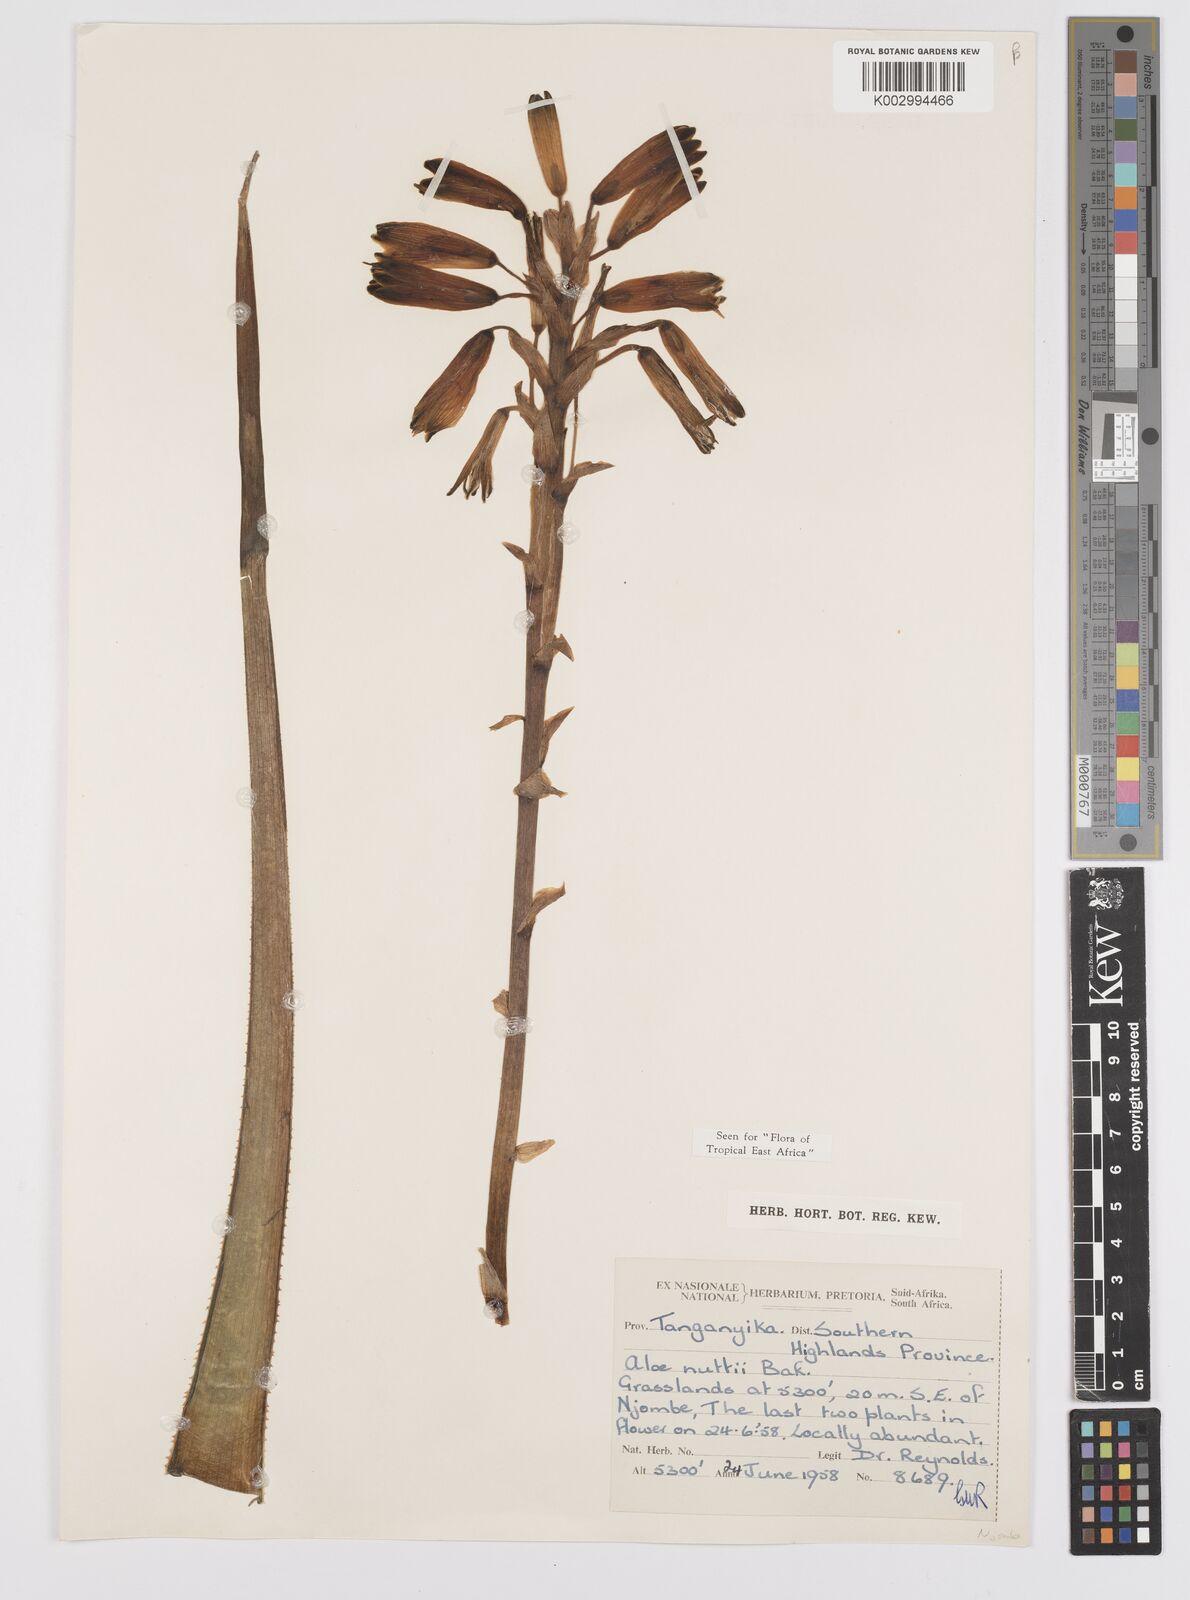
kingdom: Plantae
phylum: Tracheophyta
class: Liliopsida
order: Asparagales
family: Asphodelaceae
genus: Aloe
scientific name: Aloe nuttii
